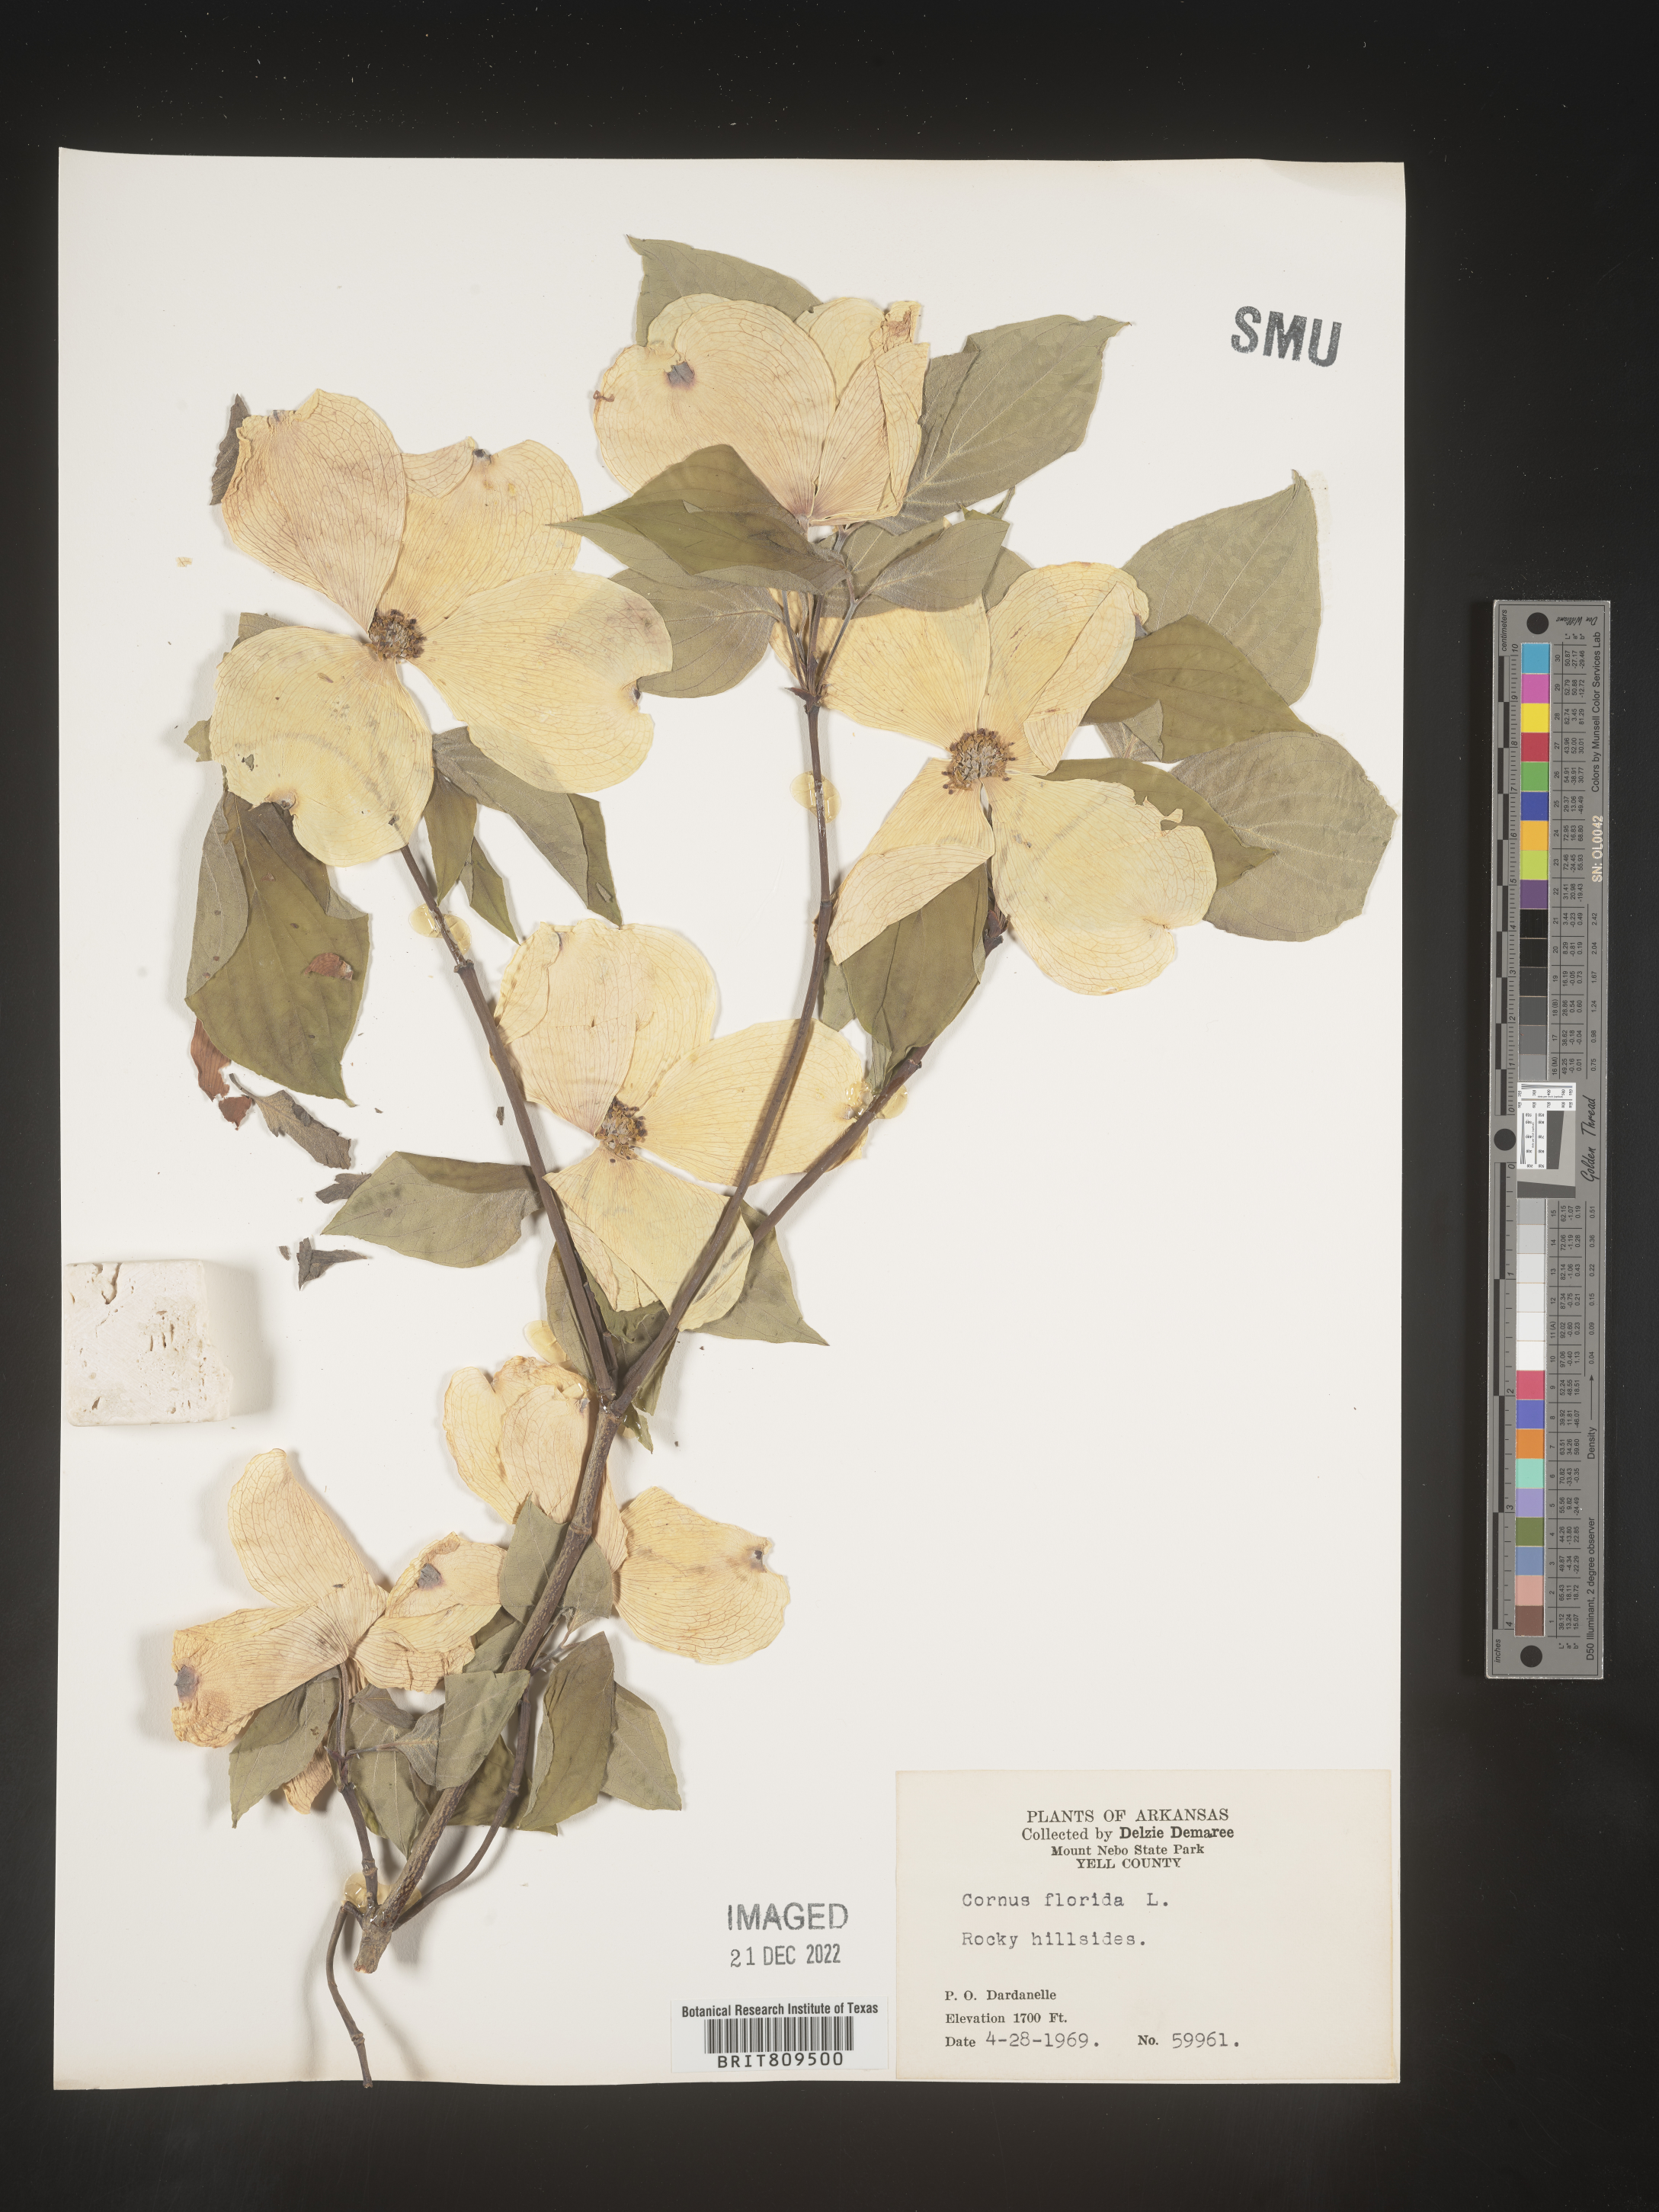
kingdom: Plantae
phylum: Tracheophyta
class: Magnoliopsida
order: Cornales
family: Cornaceae
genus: Cornus
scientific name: Cornus florida
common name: Flowering dogwood
